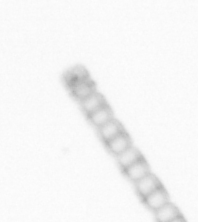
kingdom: Chromista
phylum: Ochrophyta
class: Bacillariophyceae
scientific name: Bacillariophyceae
